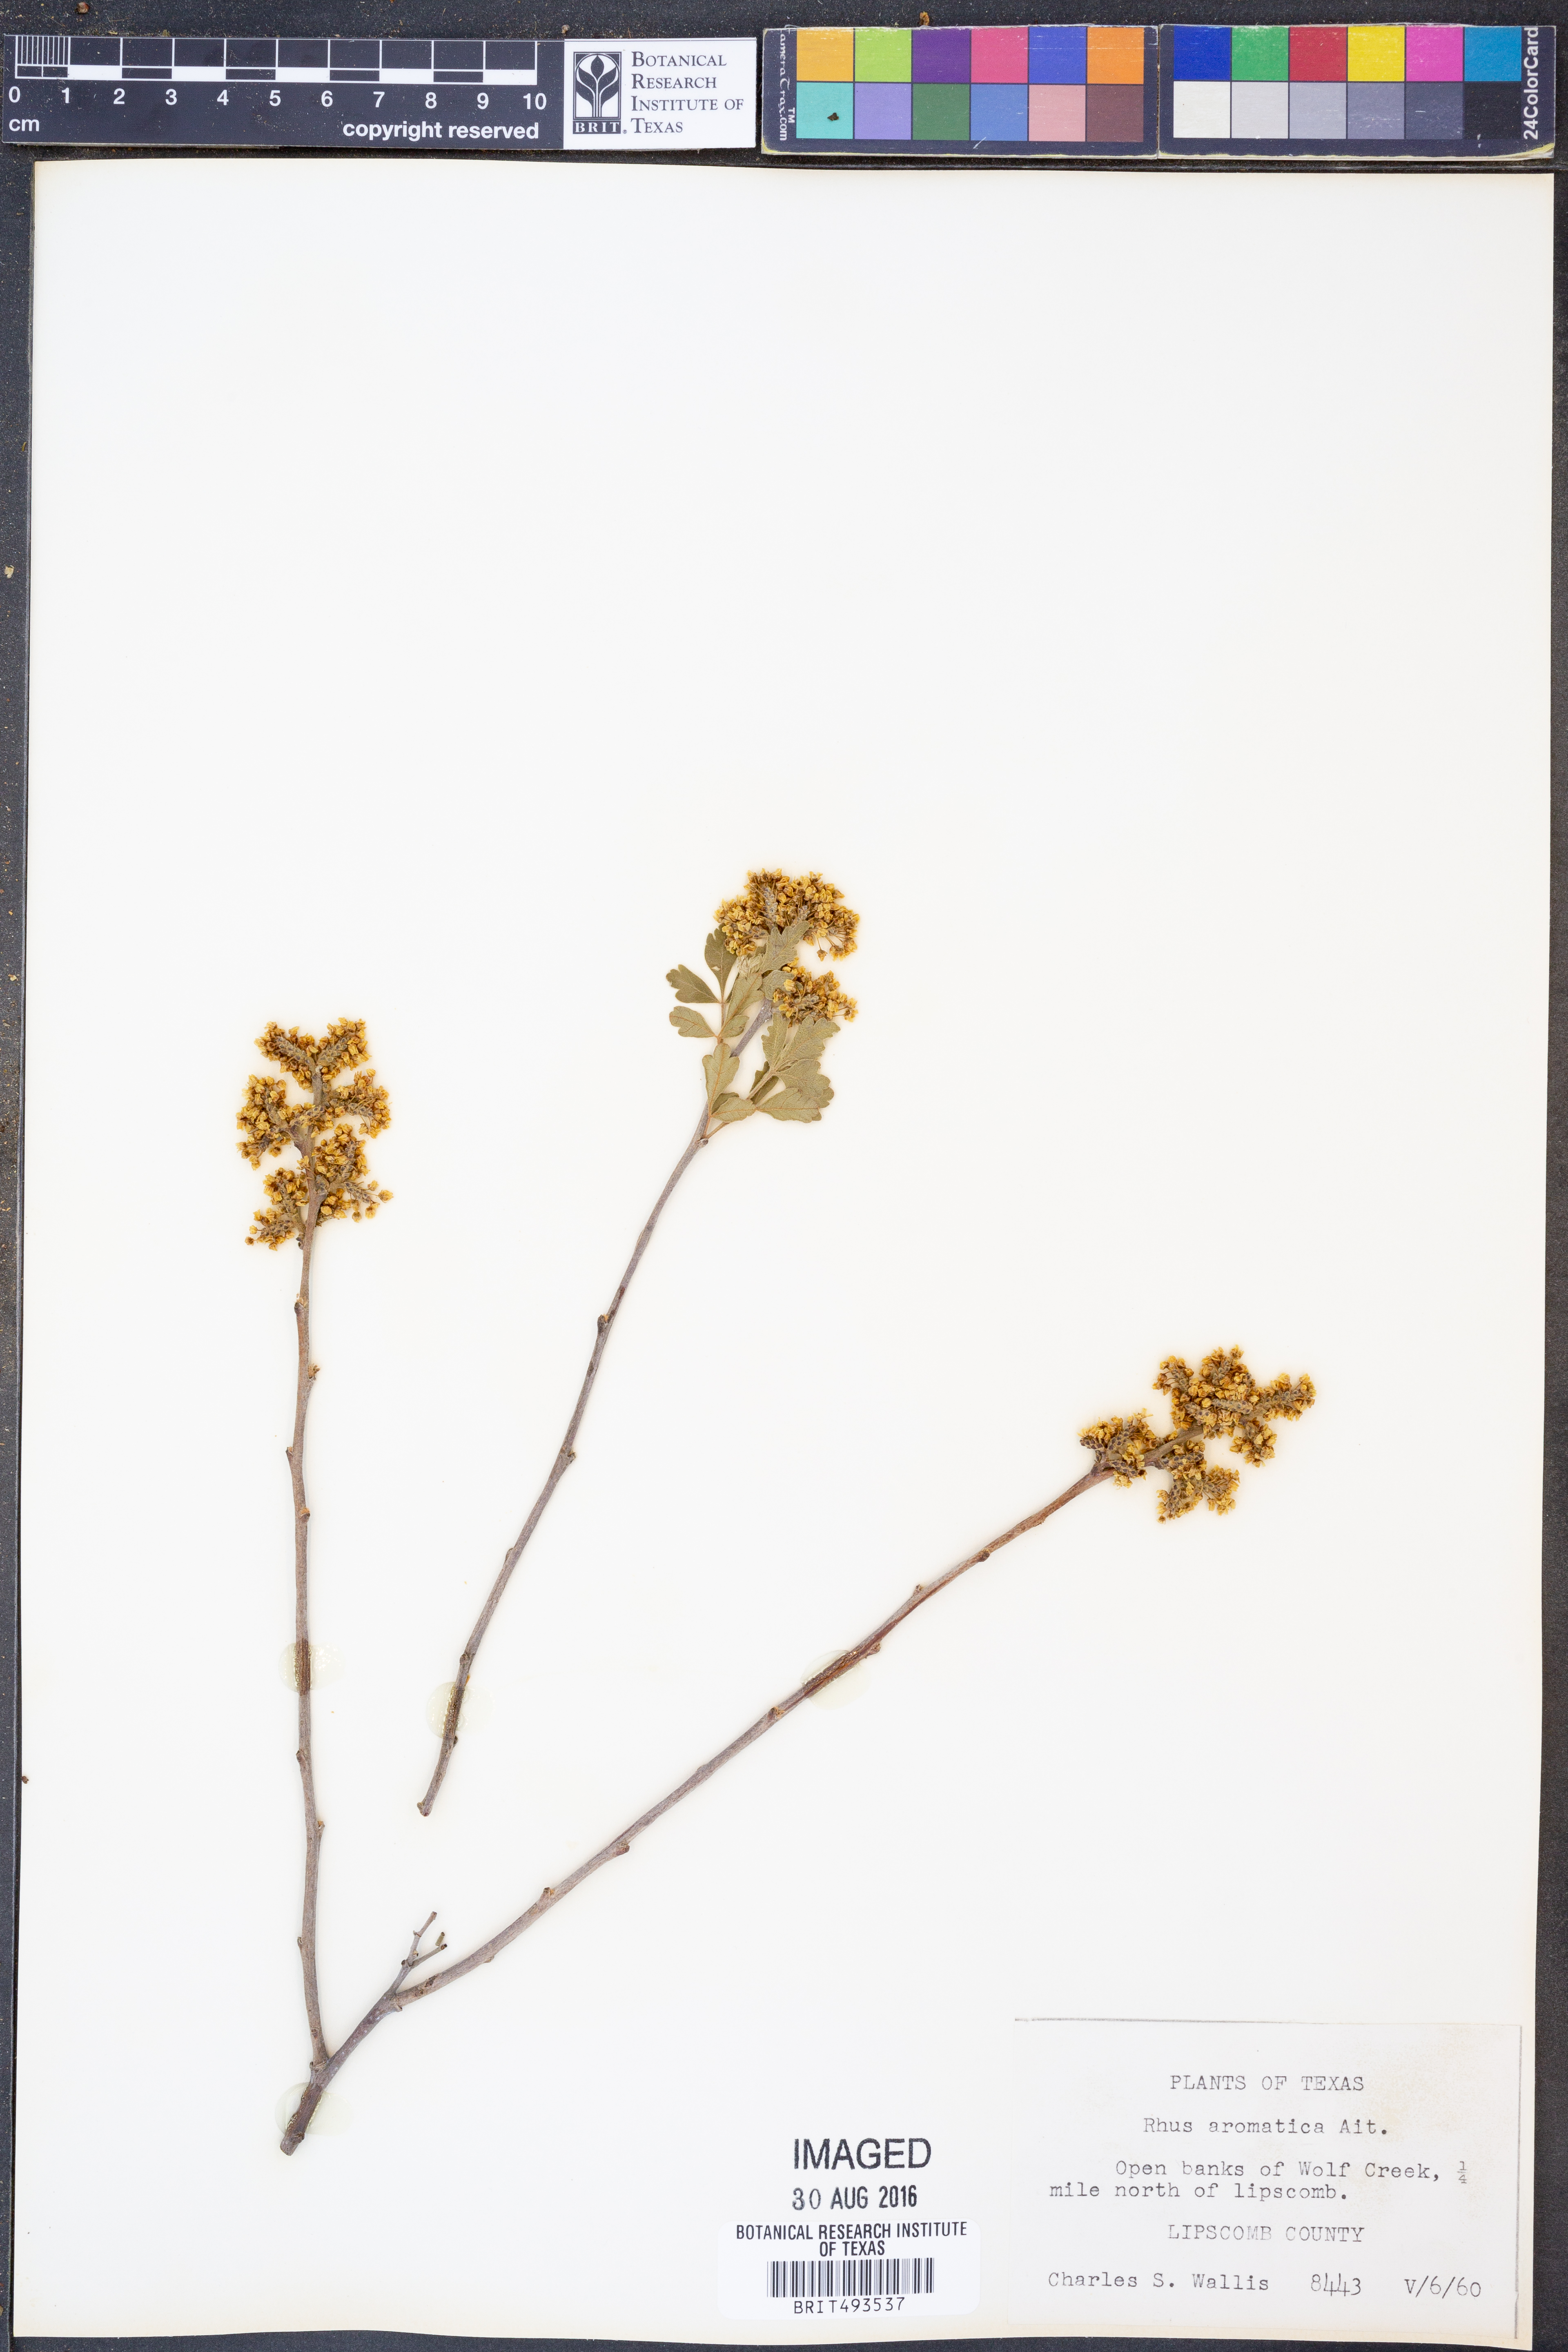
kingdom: Plantae
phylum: Tracheophyta
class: Magnoliopsida
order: Sapindales
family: Anacardiaceae
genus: Rhus
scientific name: Rhus aromatica
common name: Aromatic sumac
